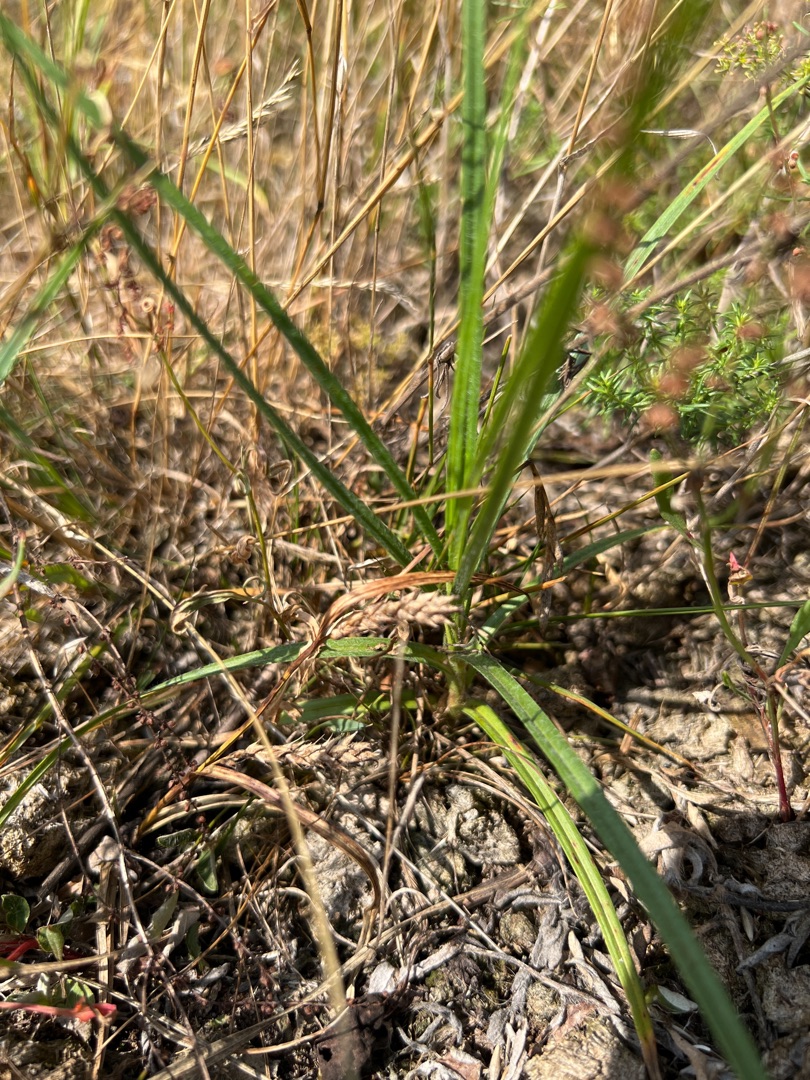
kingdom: Plantae
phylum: Tracheophyta
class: Liliopsida
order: Poales
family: Cyperaceae
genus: Carex
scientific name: Carex hirta
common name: Håret star
